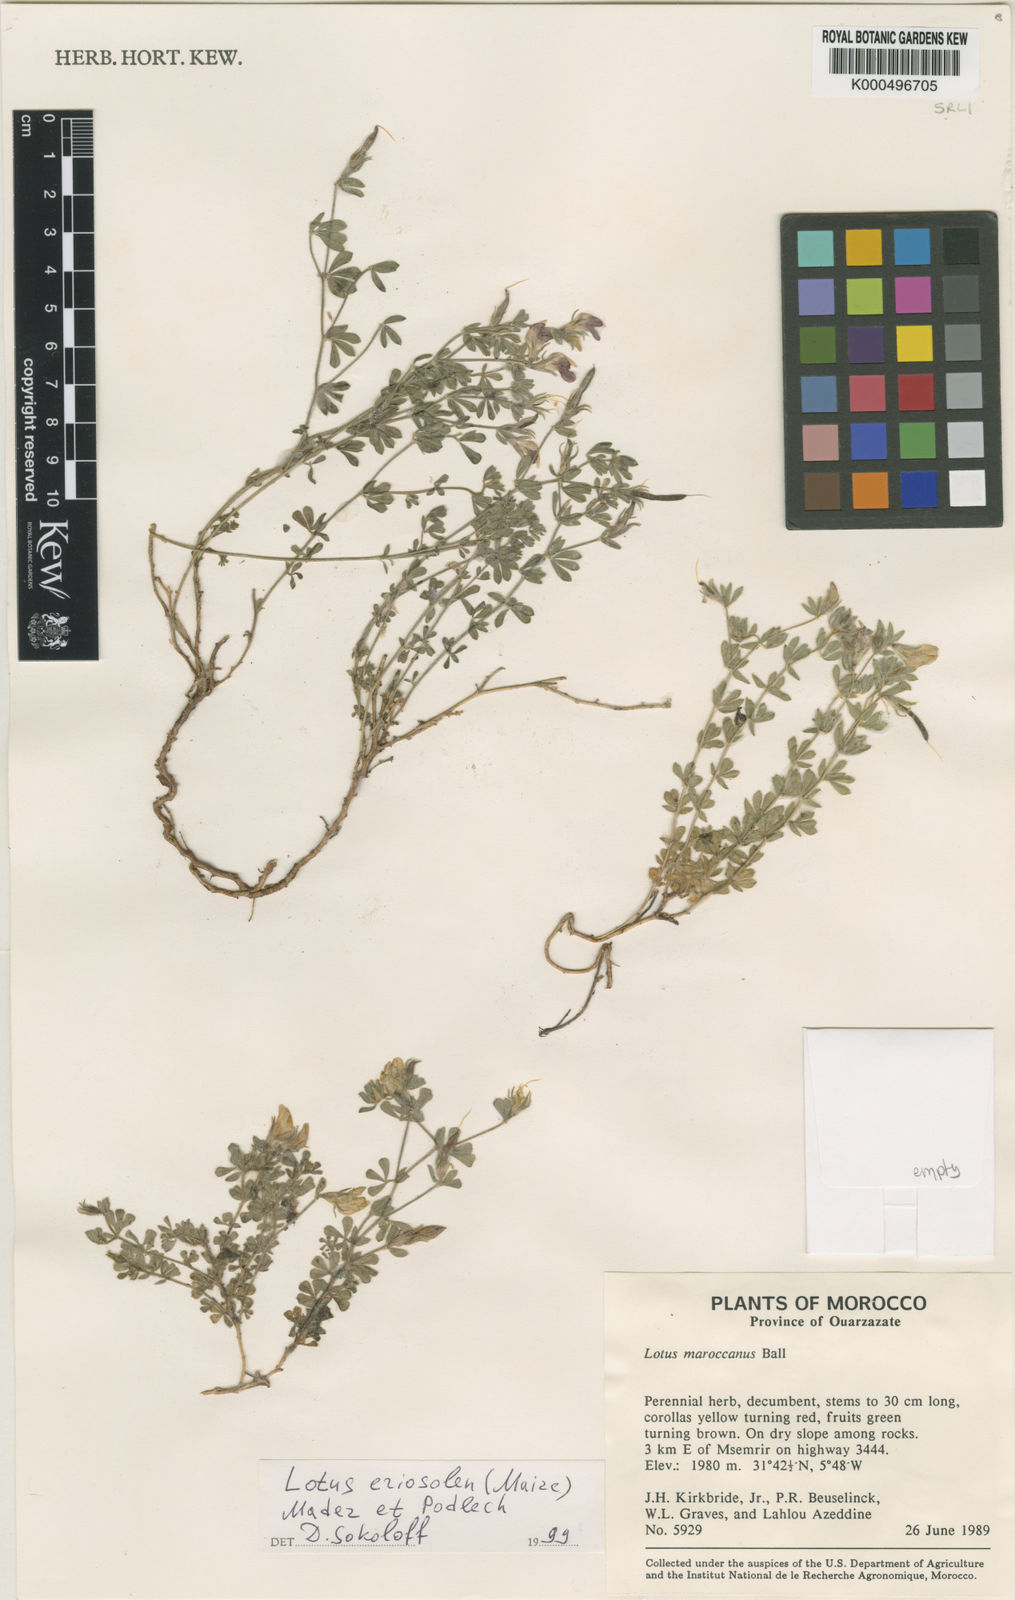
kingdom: Plantae
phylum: Tracheophyta
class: Magnoliopsida
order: Fabales
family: Fabaceae
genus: Lotus
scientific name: Lotus villicarpus
